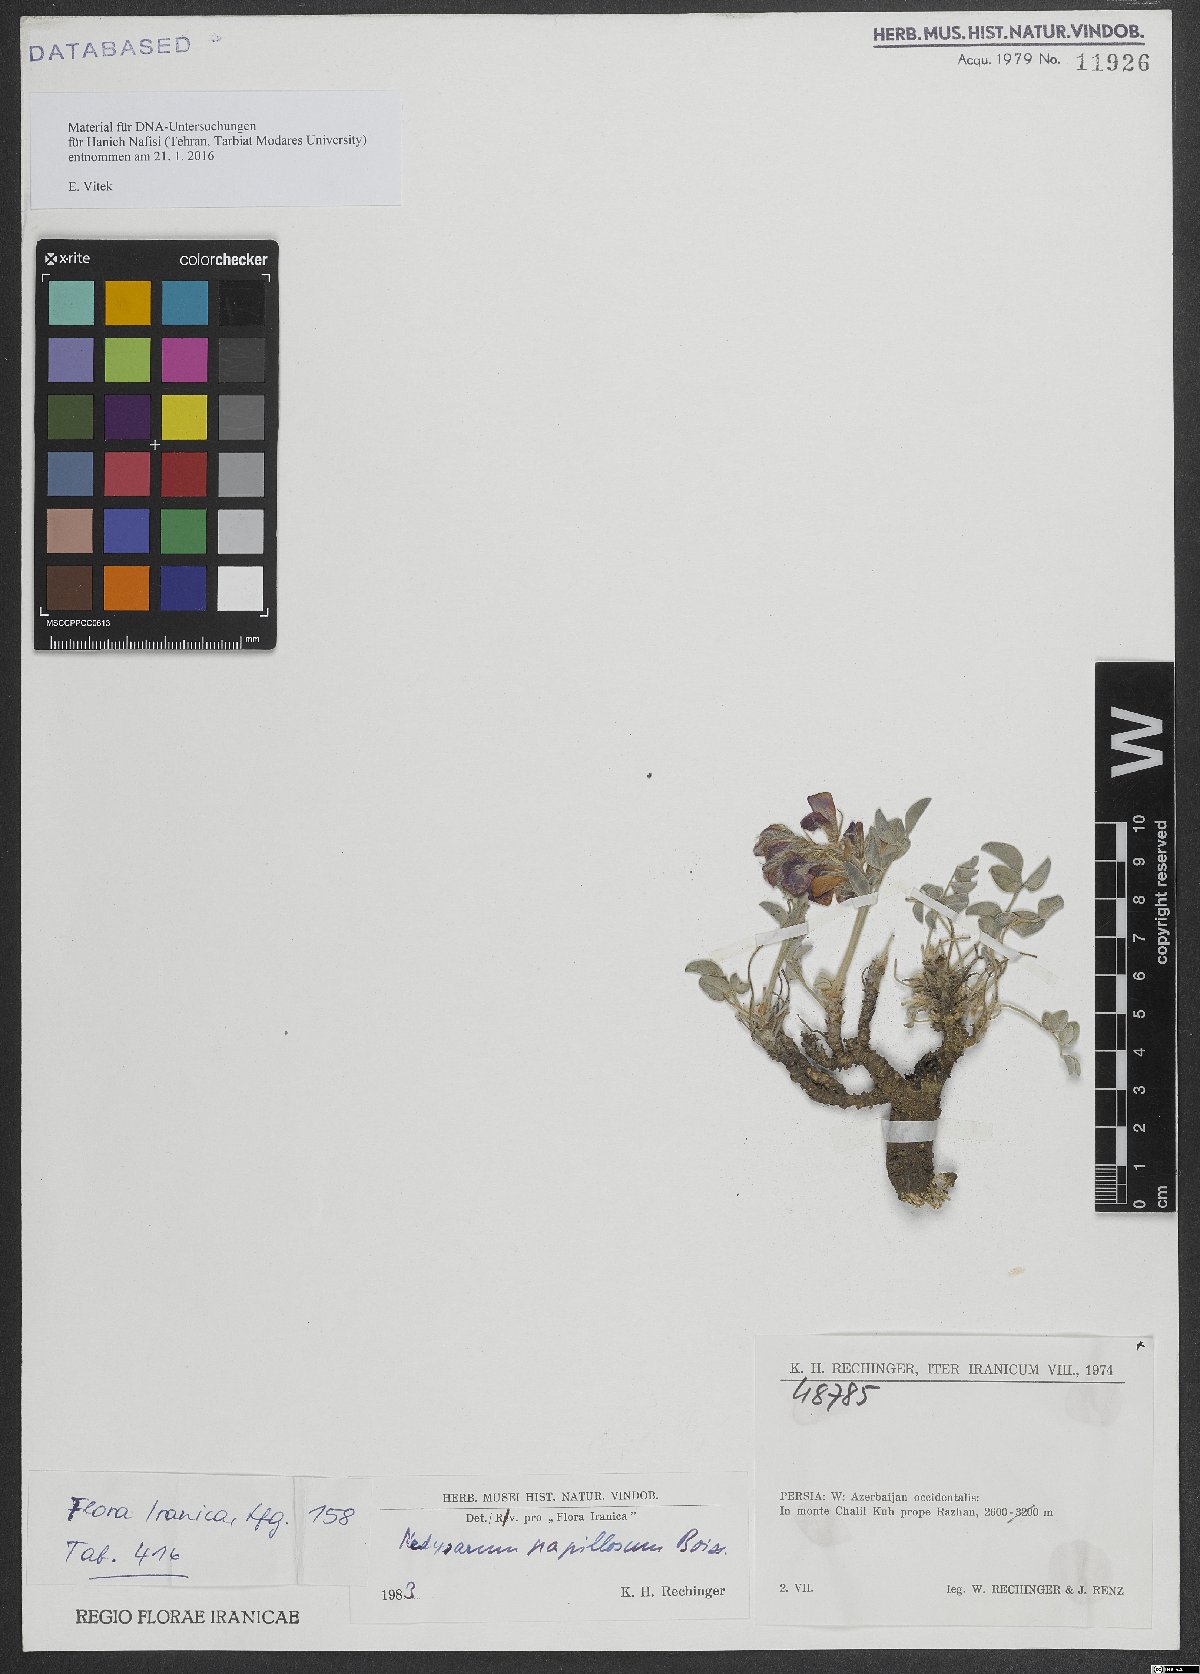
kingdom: Plantae
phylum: Tracheophyta
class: Magnoliopsida
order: Fabales
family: Fabaceae
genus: Hedysarum
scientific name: Hedysarum papillosum
